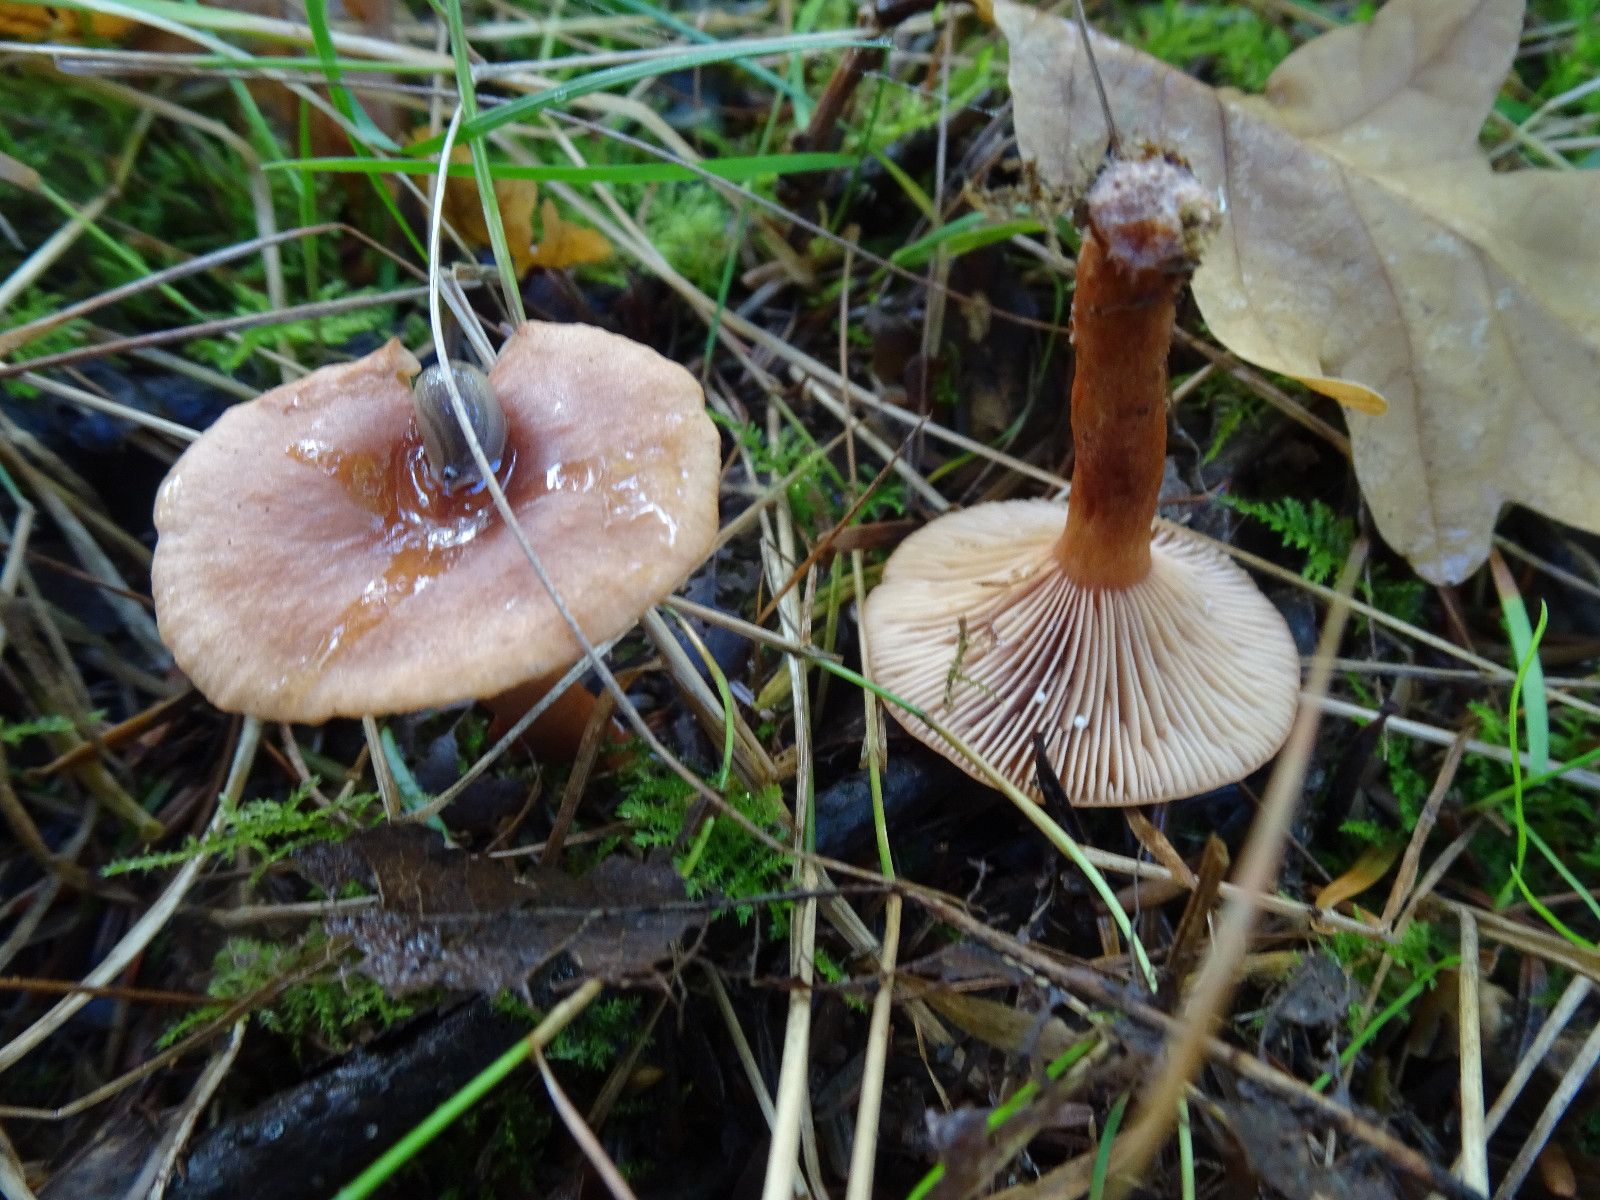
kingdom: Fungi
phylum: Basidiomycota
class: Agaricomycetes
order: Russulales
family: Russulaceae
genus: Lactarius
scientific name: Lactarius tabidus
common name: rynket mælkehat
